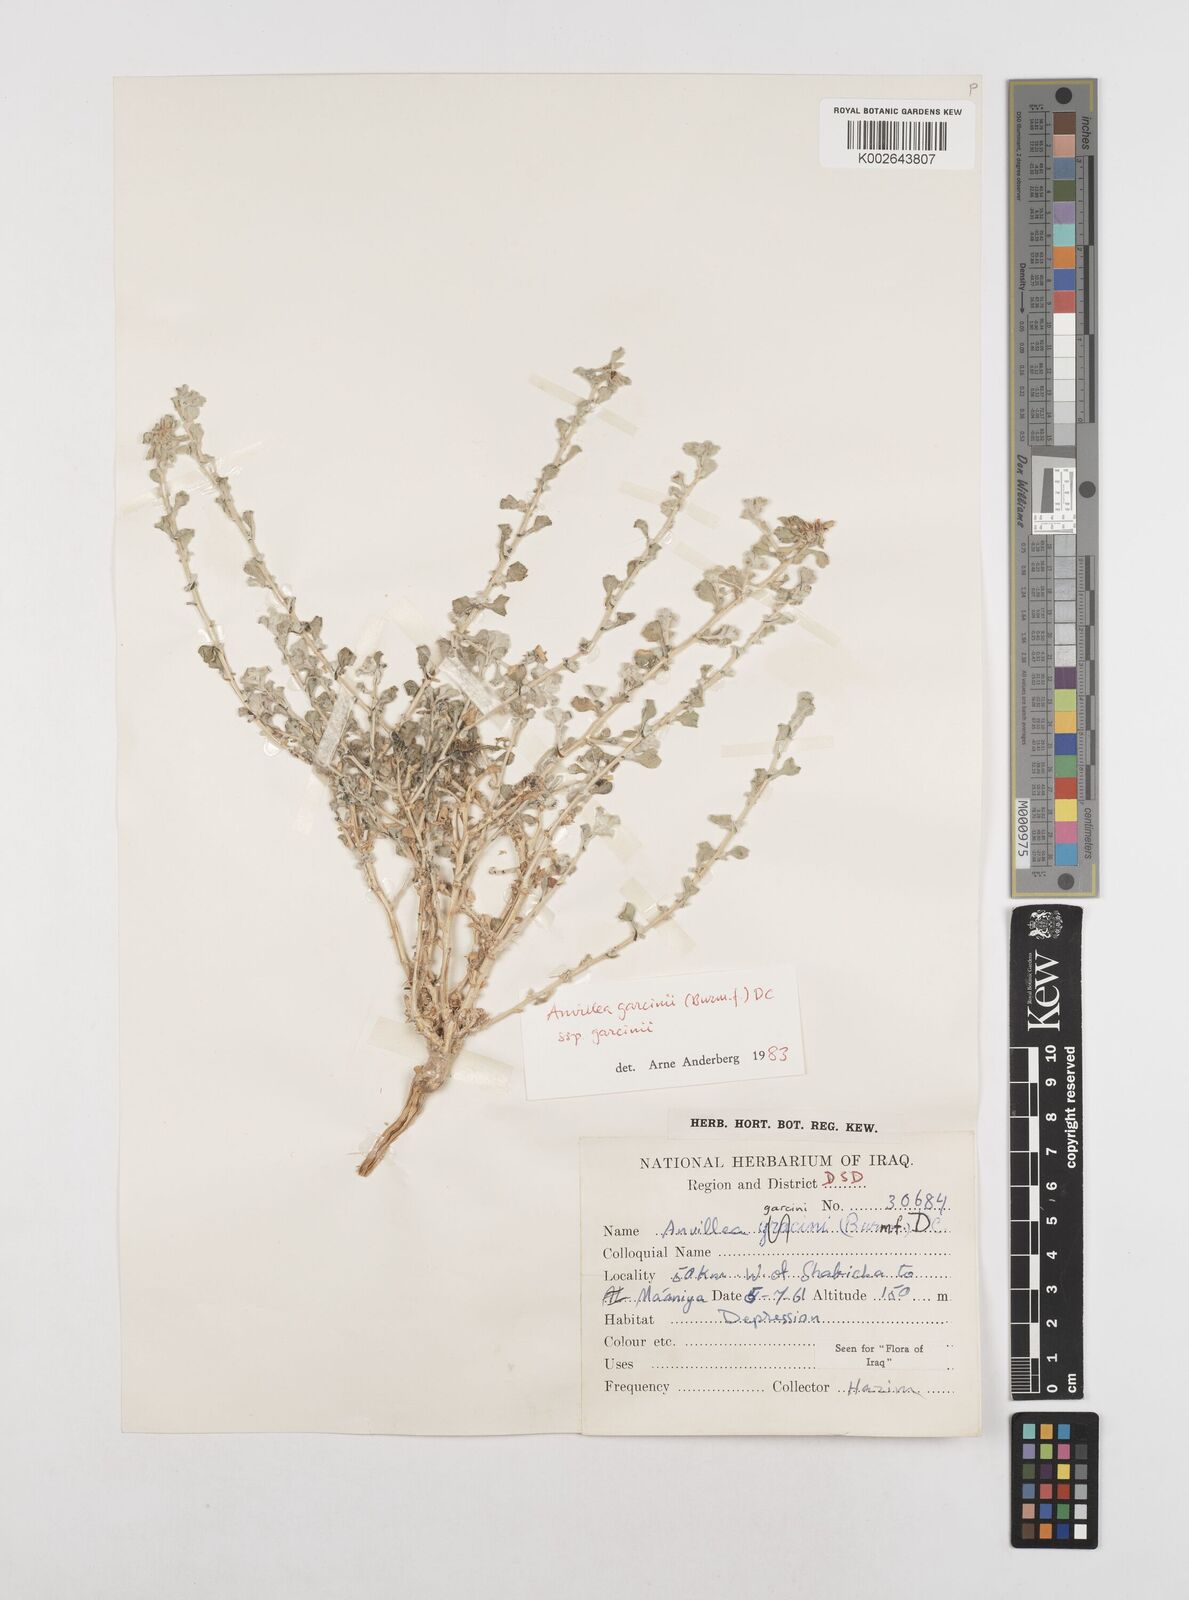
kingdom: Plantae
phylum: Tracheophyta
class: Magnoliopsida
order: Asterales
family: Asteraceae
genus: Anvillea
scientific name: Anvillea garcinii
